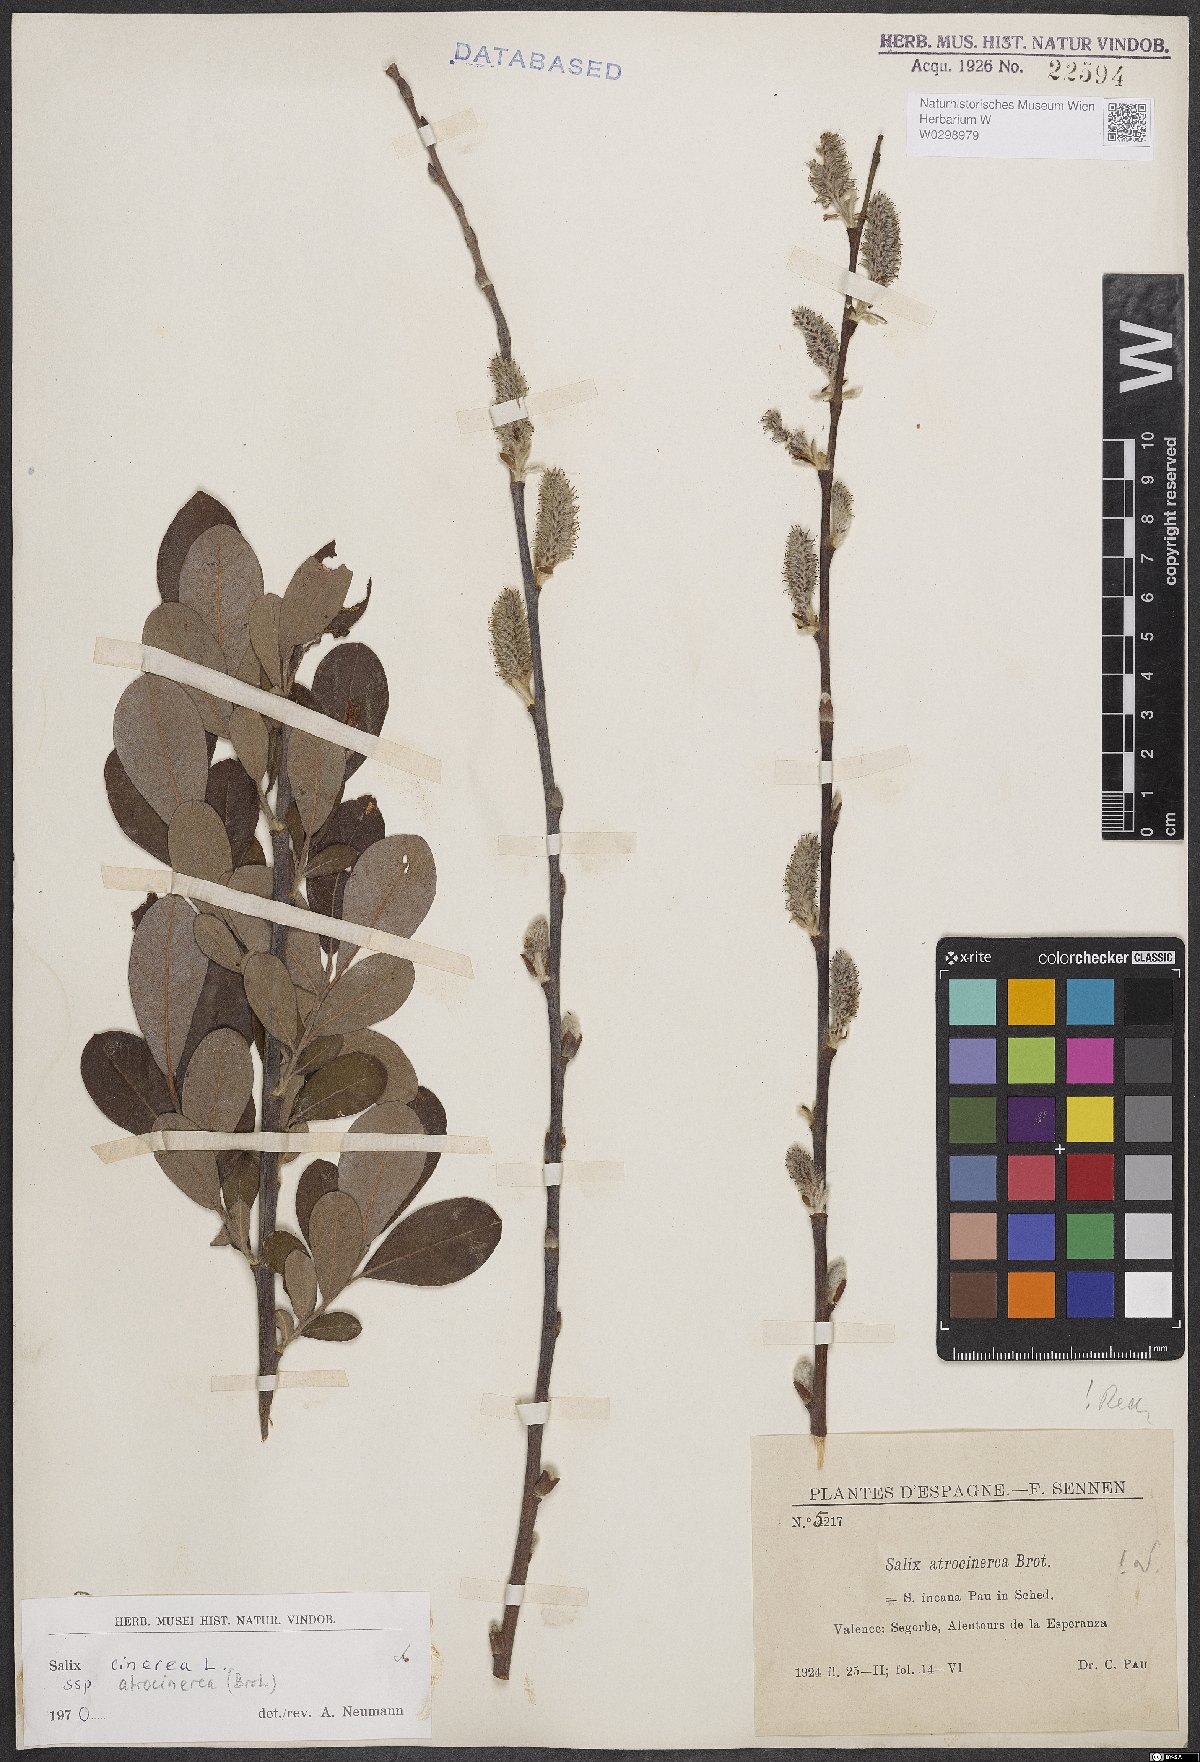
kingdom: Plantae
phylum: Tracheophyta
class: Magnoliopsida
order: Malpighiales
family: Salicaceae
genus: Salix
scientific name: Salix atrocinerea
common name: Rusty willow
